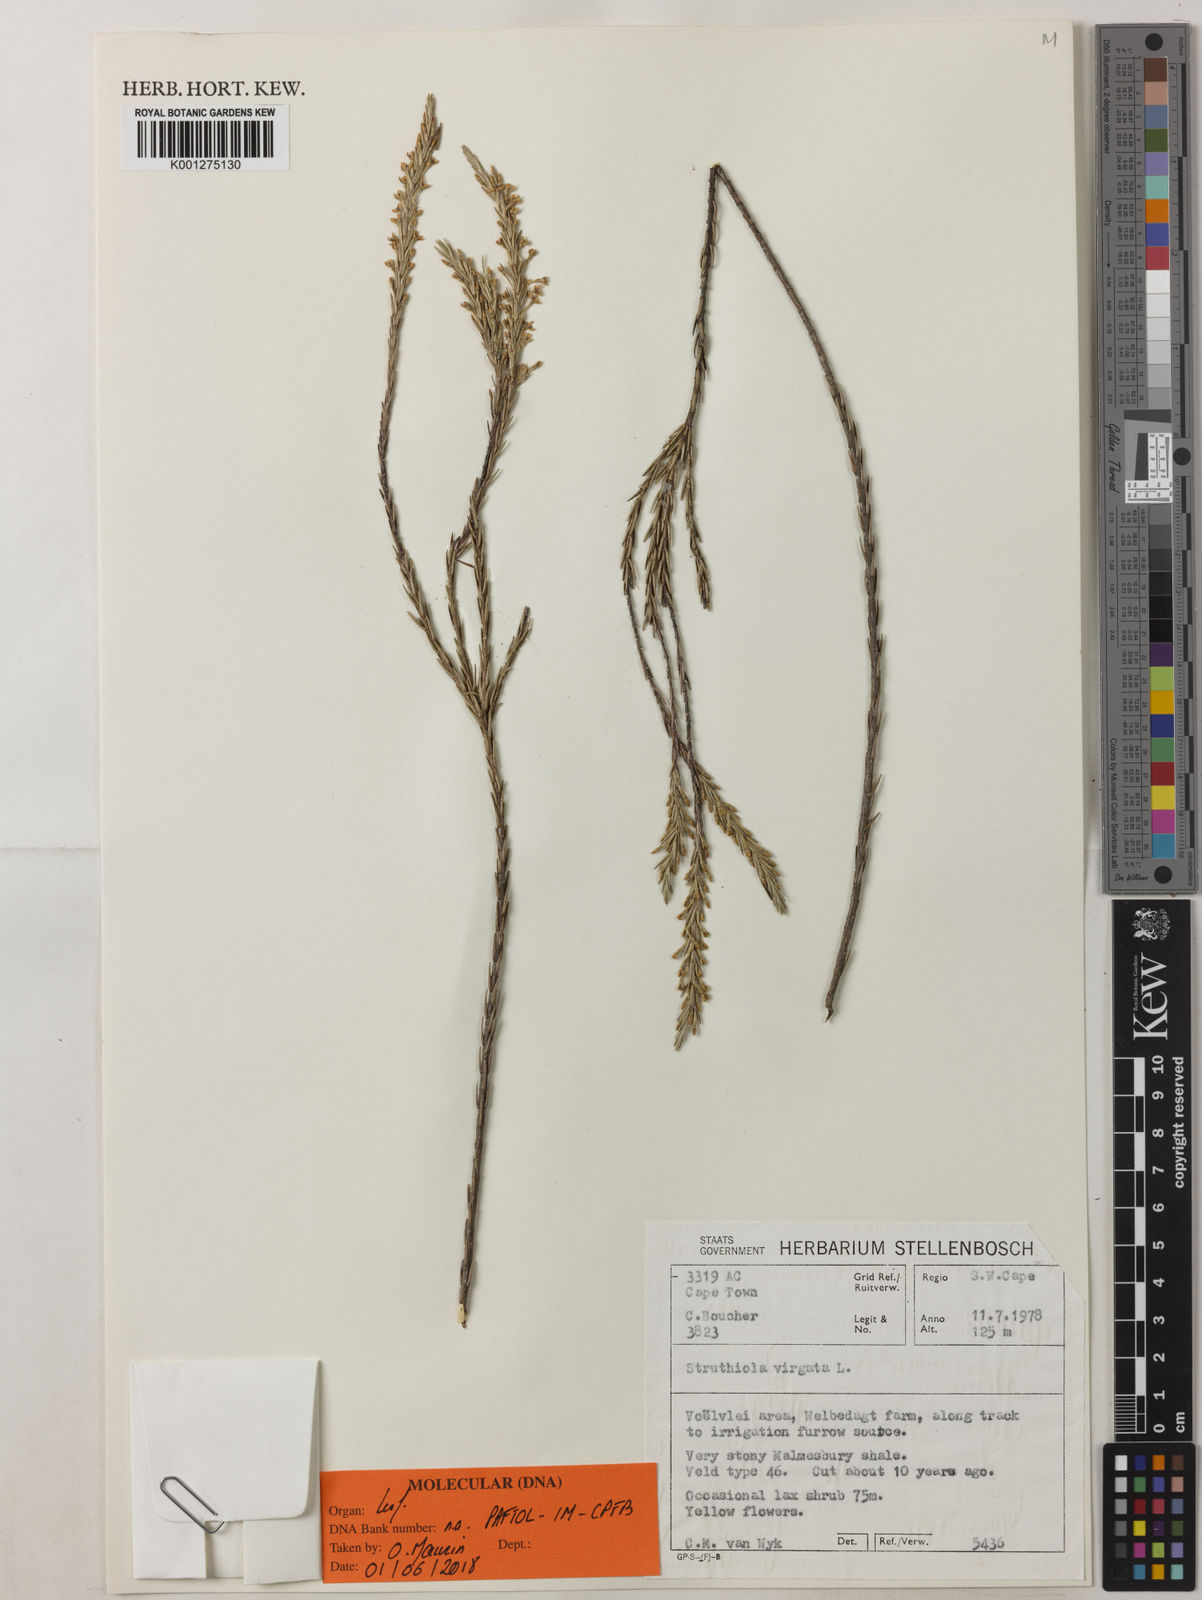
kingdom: Plantae
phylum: Tracheophyta
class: Magnoliopsida
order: Malvales
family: Thymelaeaceae
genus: Struthiola
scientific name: Struthiola ciliata
